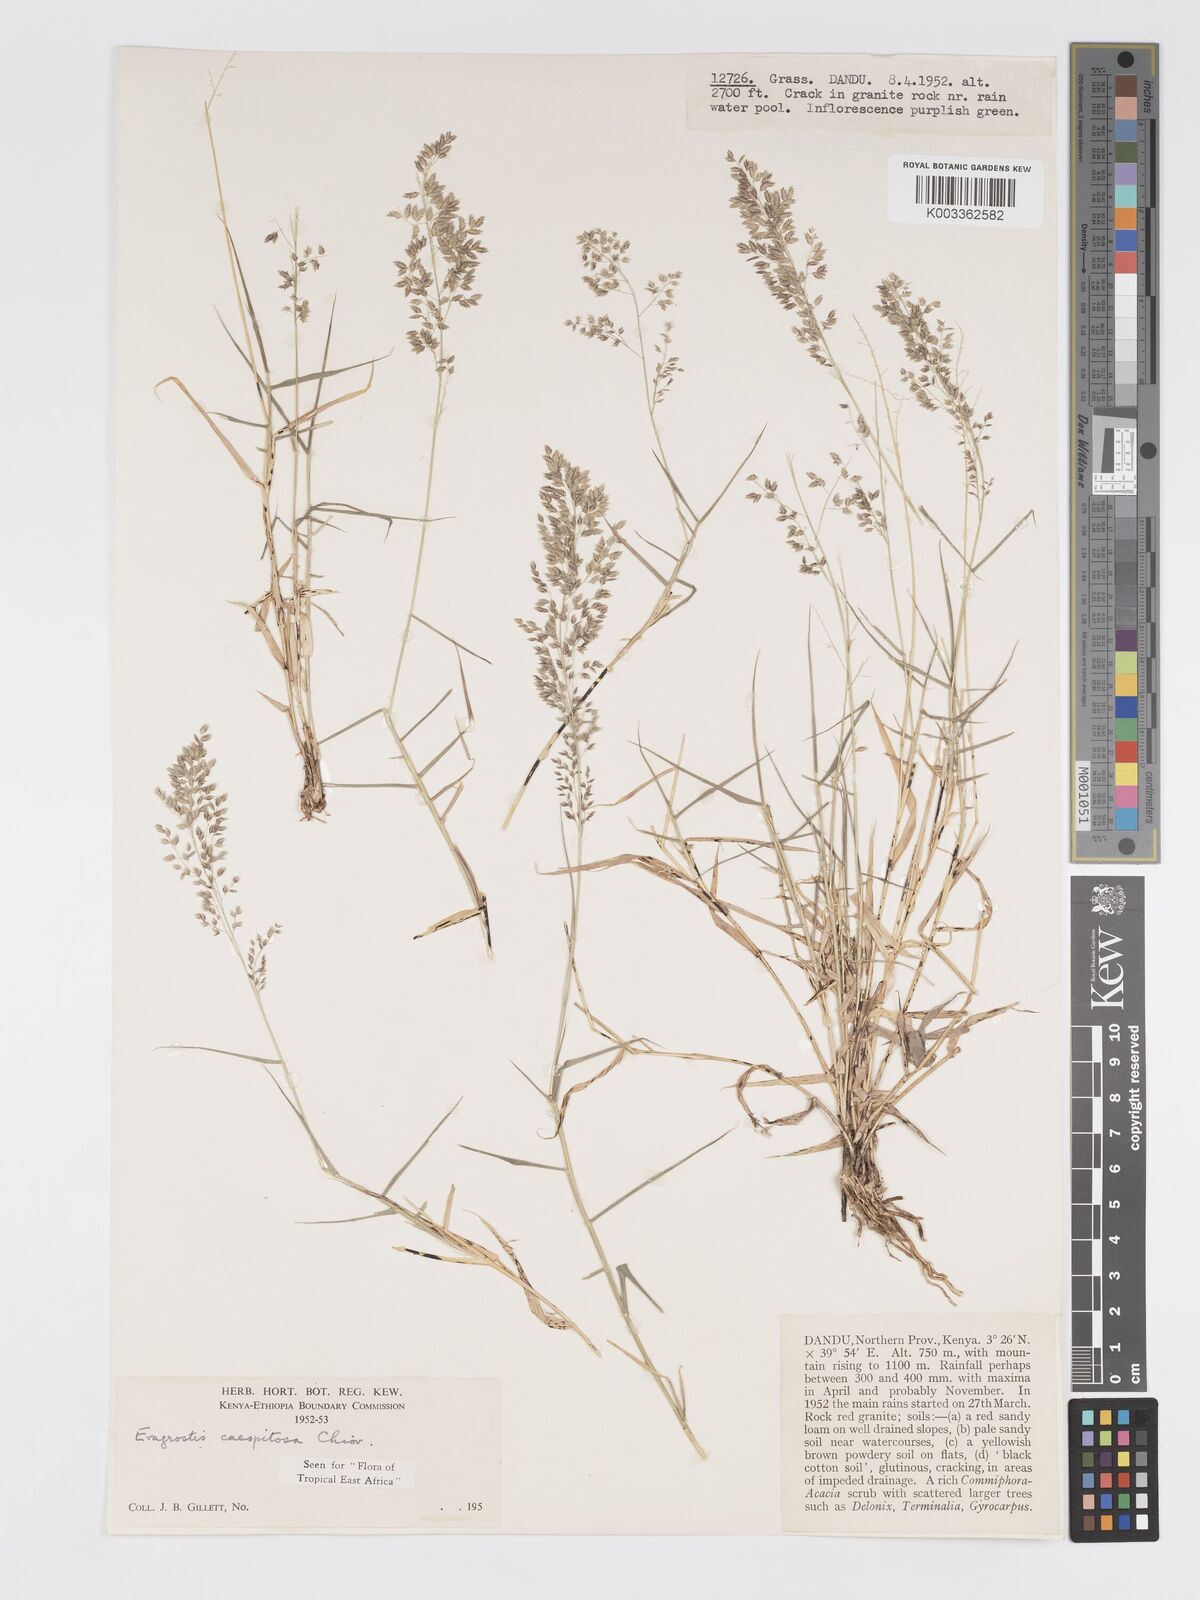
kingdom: Plantae
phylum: Tracheophyta
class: Liliopsida
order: Poales
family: Poaceae
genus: Eragrostis
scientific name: Eragrostis caespitosa
